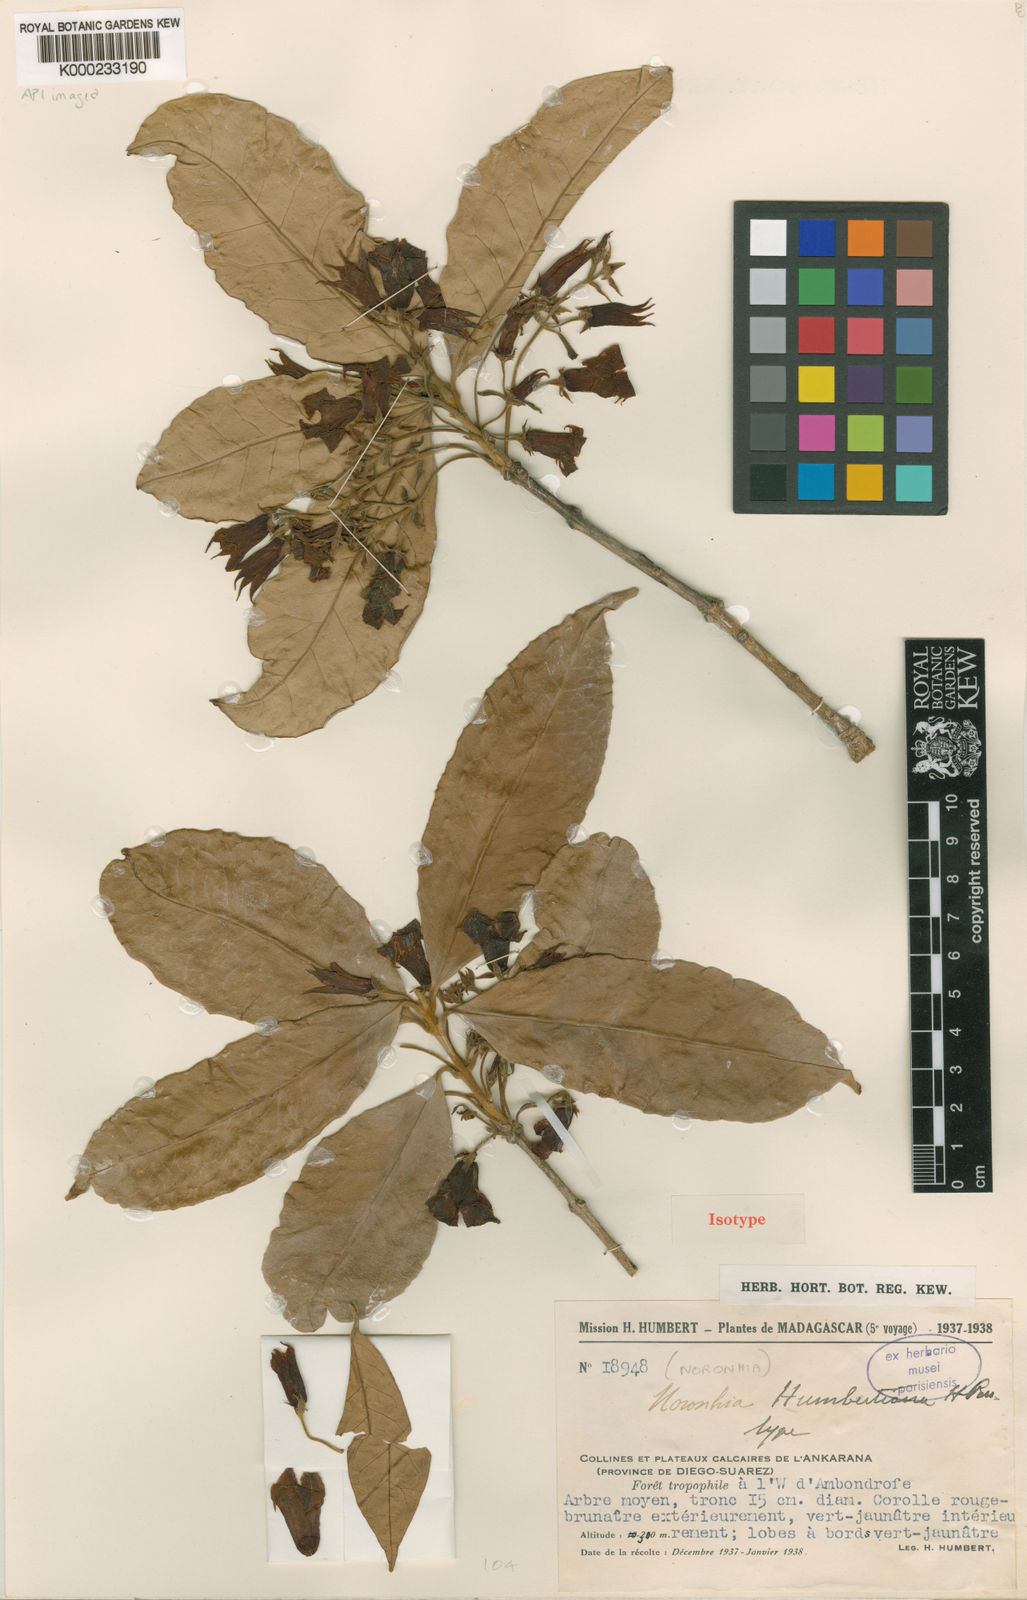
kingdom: Plantae
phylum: Tracheophyta
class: Magnoliopsida
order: Lamiales
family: Oleaceae
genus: Noronhia
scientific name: Noronhia humbertiana
